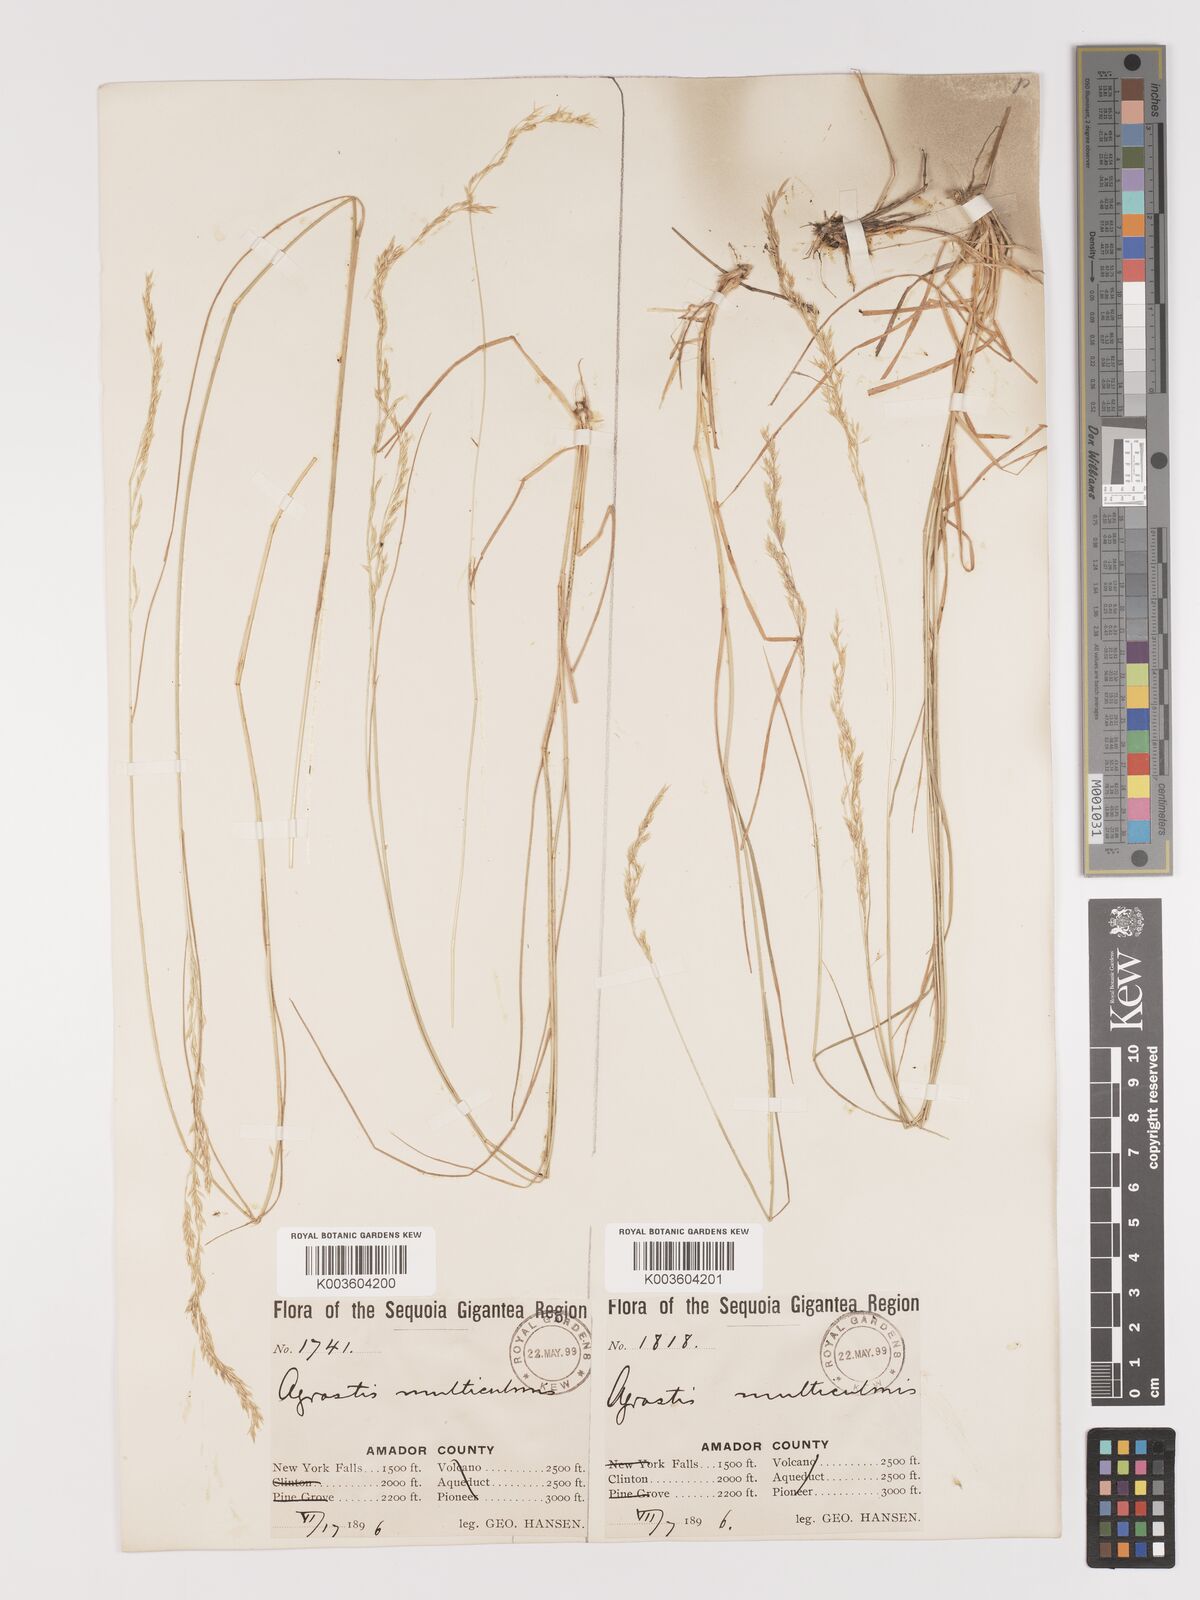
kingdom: Plantae
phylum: Tracheophyta
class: Liliopsida
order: Poales
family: Poaceae
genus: Agrostis
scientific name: Agrostis pallens
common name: Dune bent
